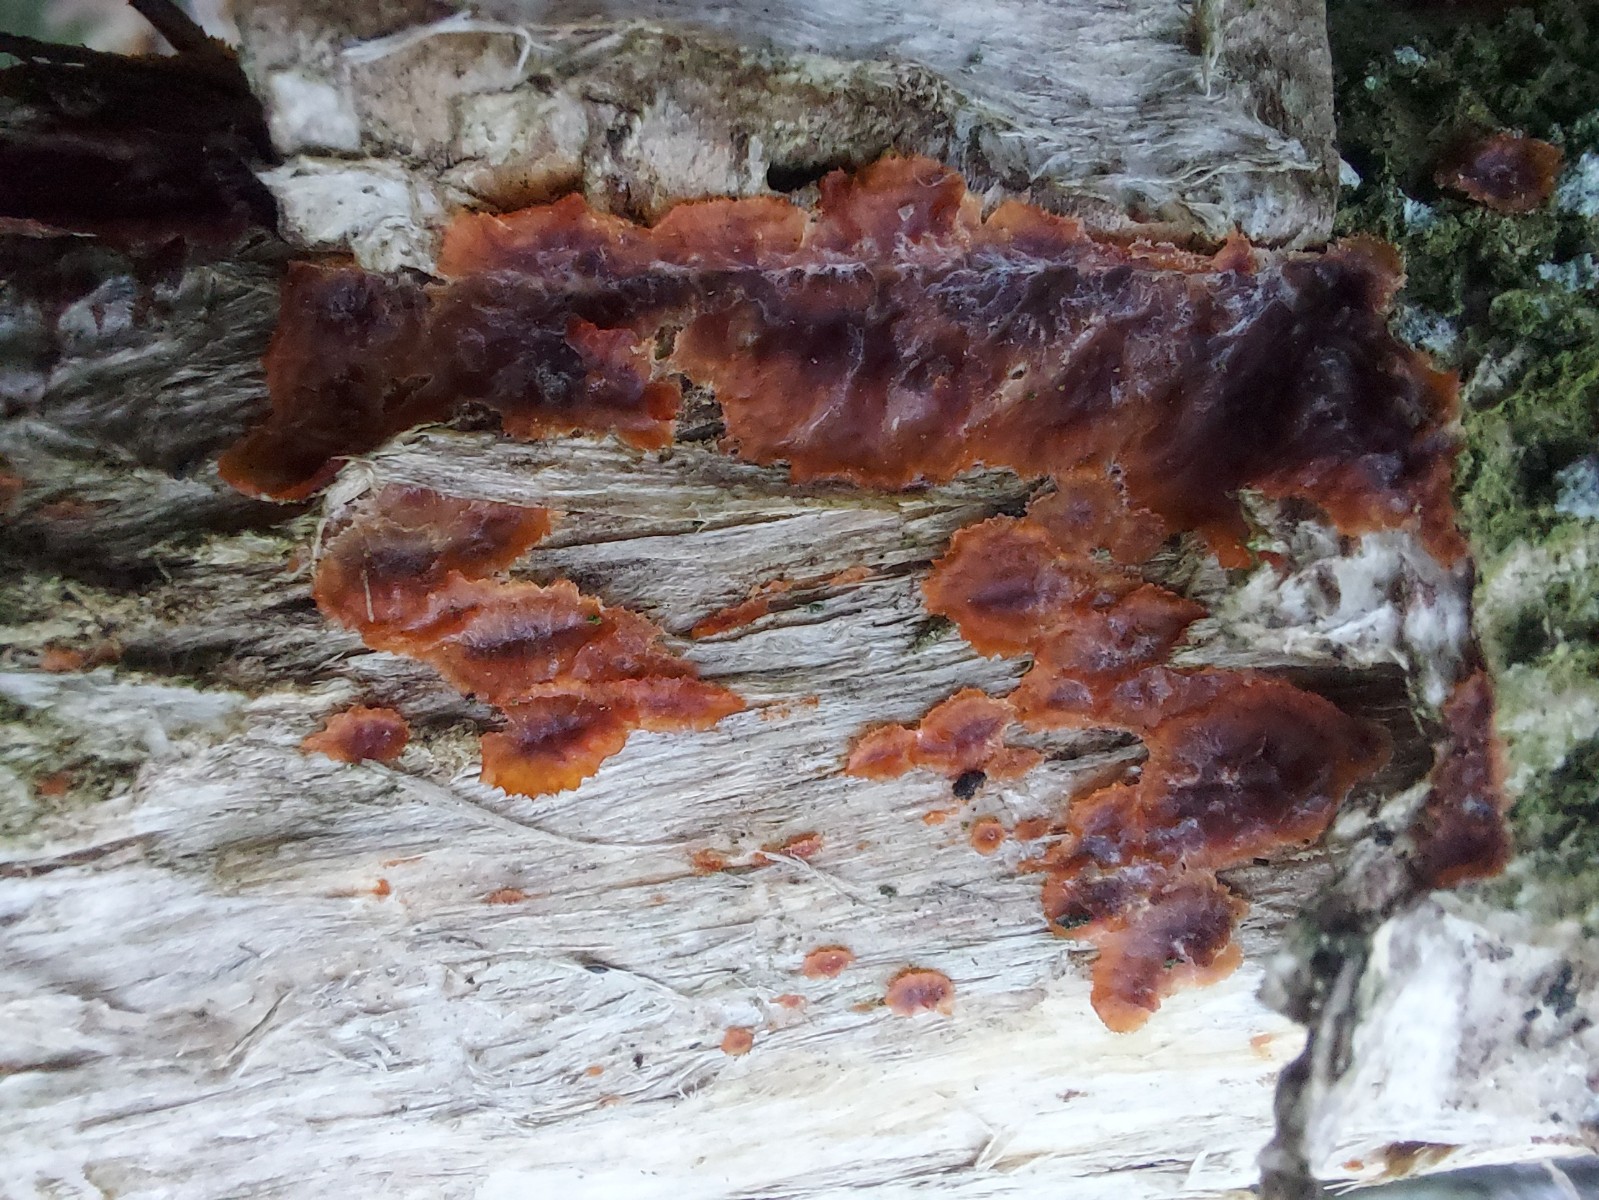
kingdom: Fungi
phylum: Basidiomycota
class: Agaricomycetes
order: Polyporales
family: Meruliaceae
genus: Phlebia
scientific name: Phlebia radiata
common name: stråle-åresvamp
